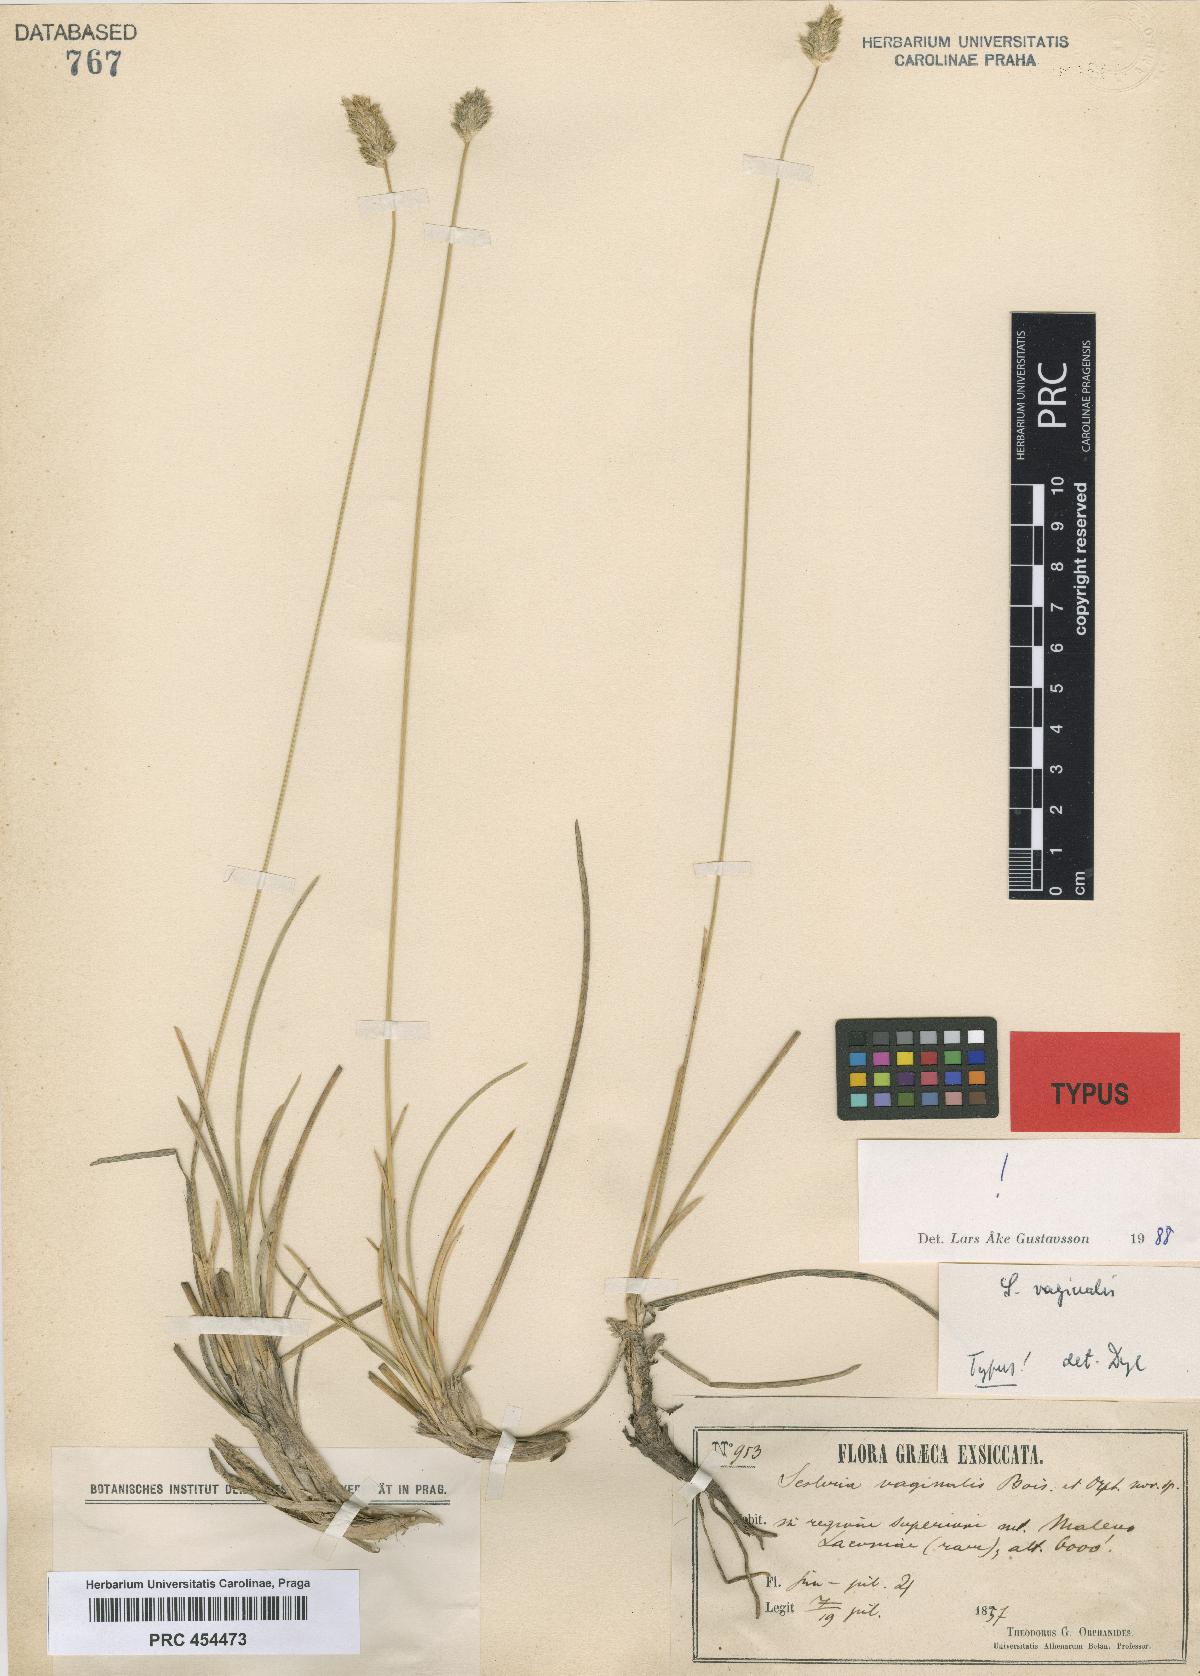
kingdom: Plantae
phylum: Tracheophyta
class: Liliopsida
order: Poales
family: Poaceae
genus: Sesleria
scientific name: Sesleria vaginalis
